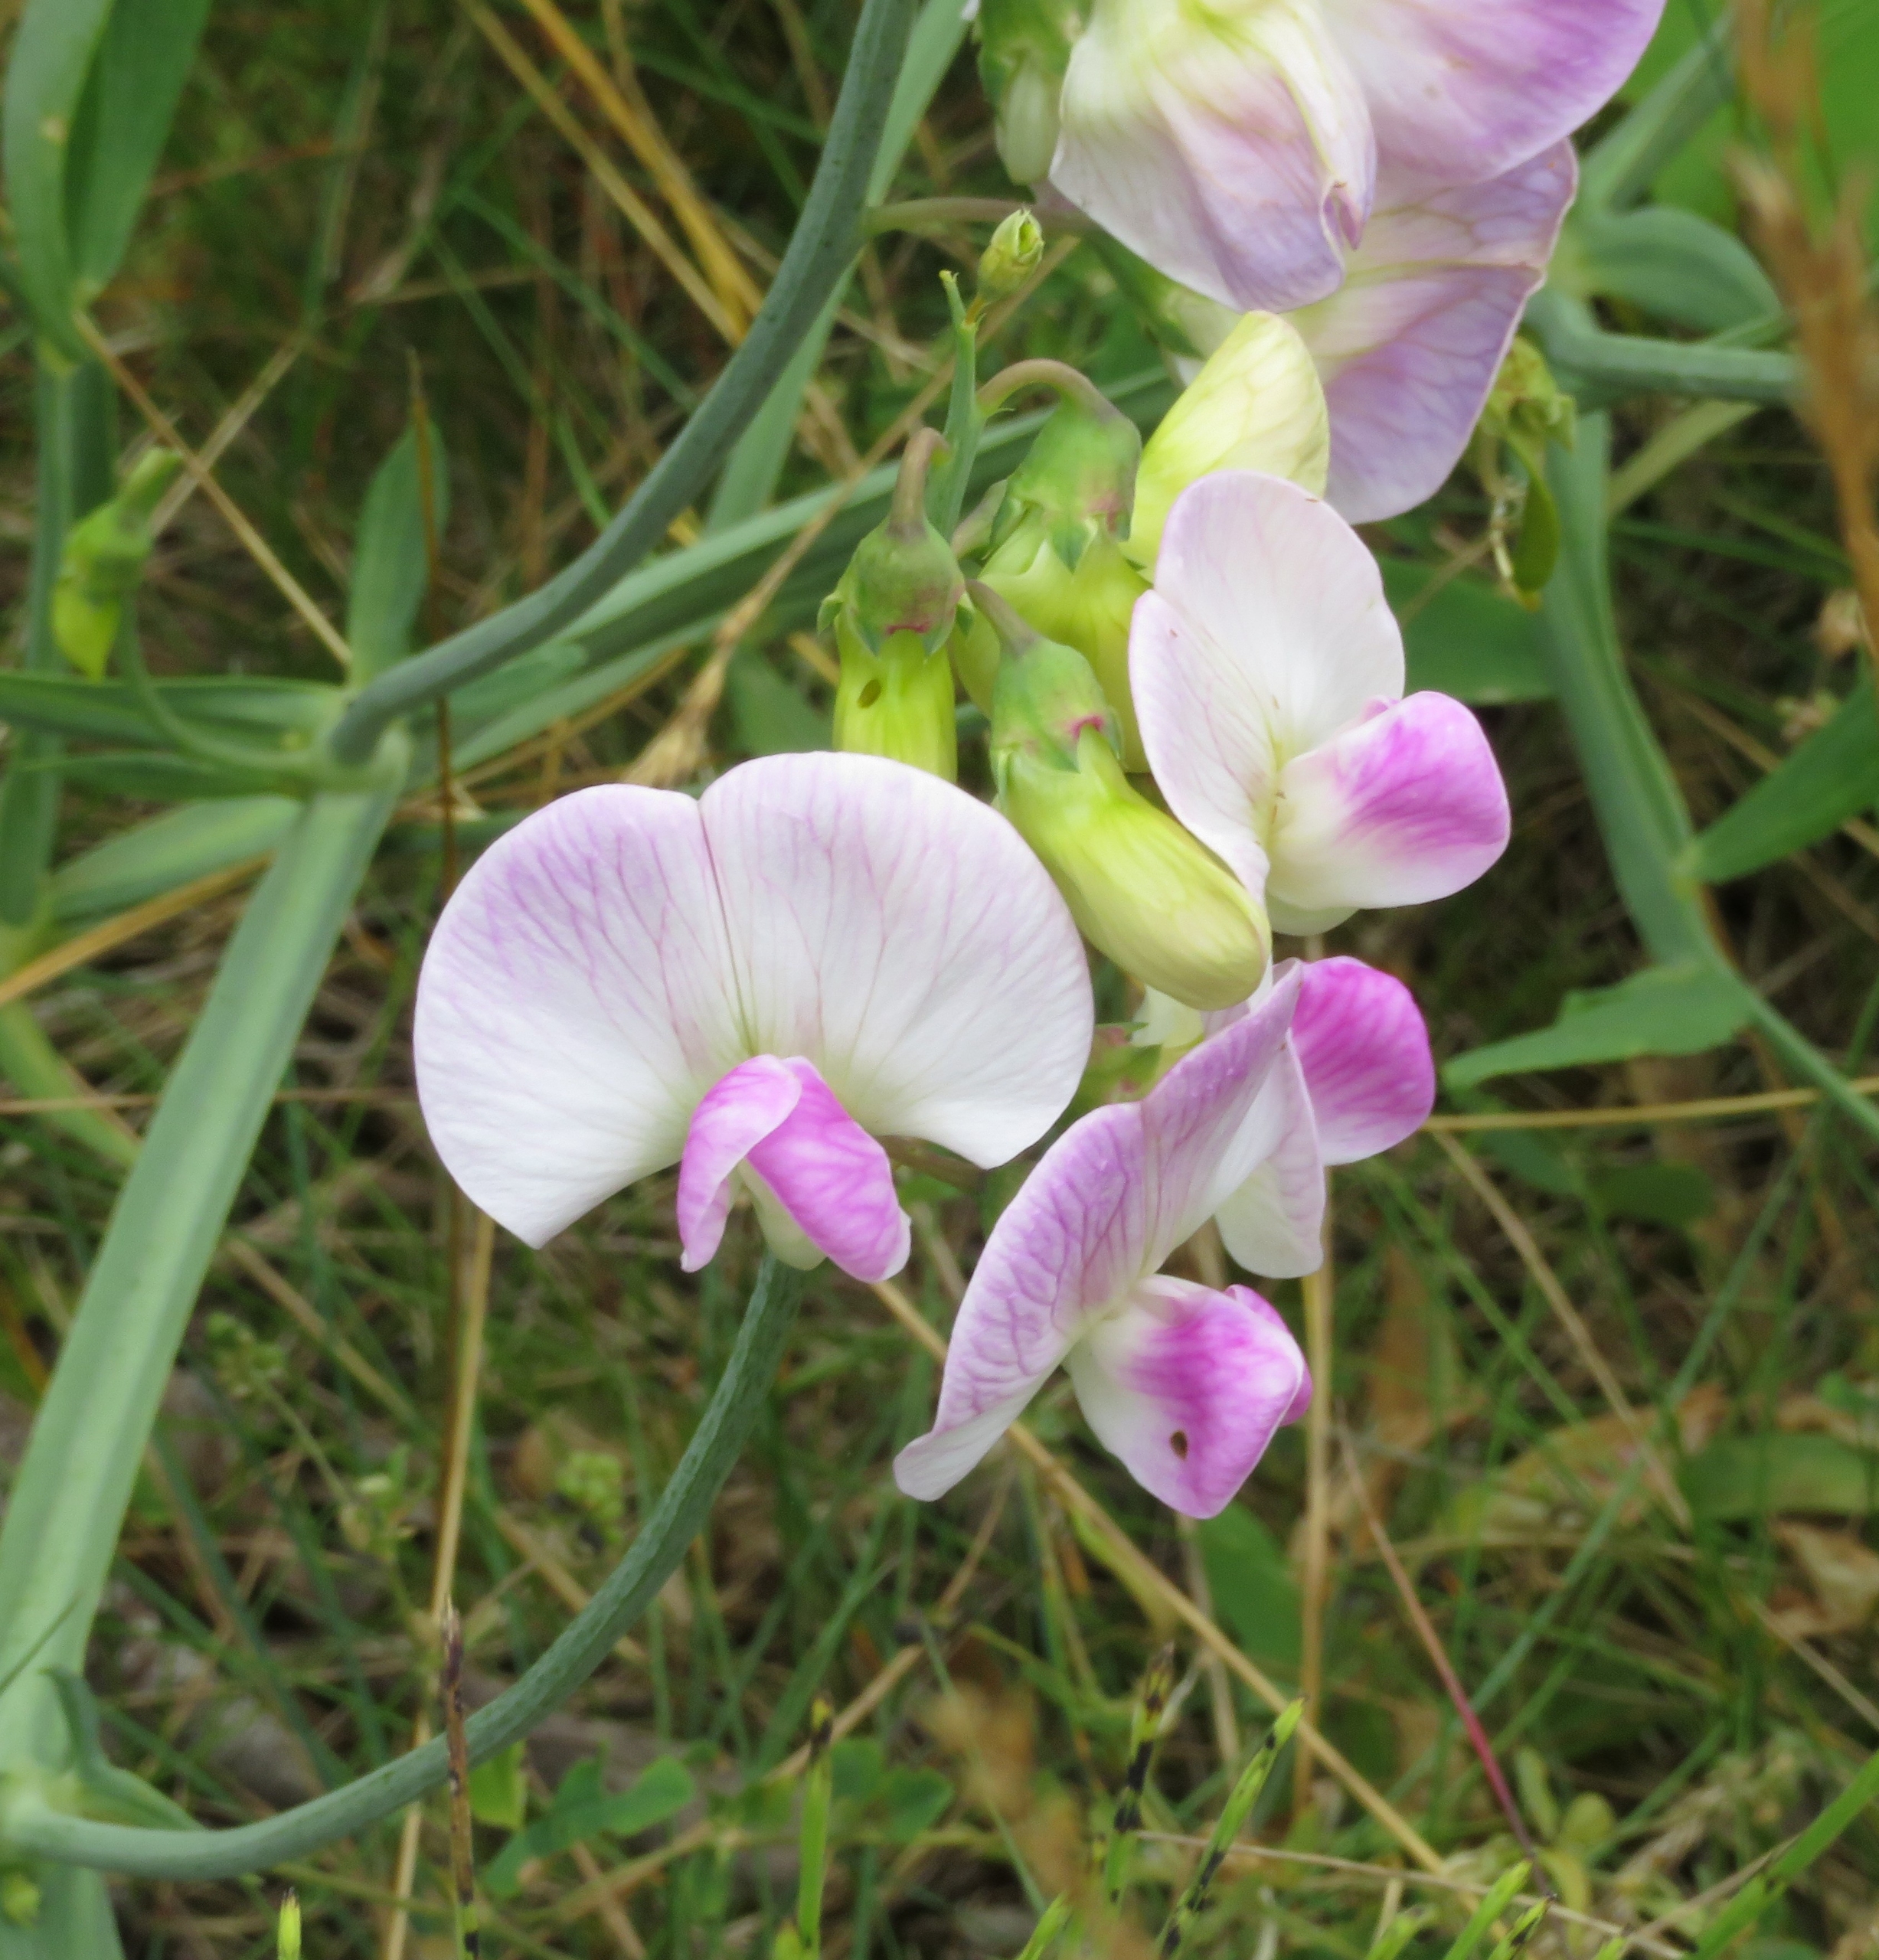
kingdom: Plantae
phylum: Tracheophyta
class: Magnoliopsida
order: Fabales
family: Fabaceae
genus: Lathyrus
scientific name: Lathyrus latifolius
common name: Flerårig ærteblomst
